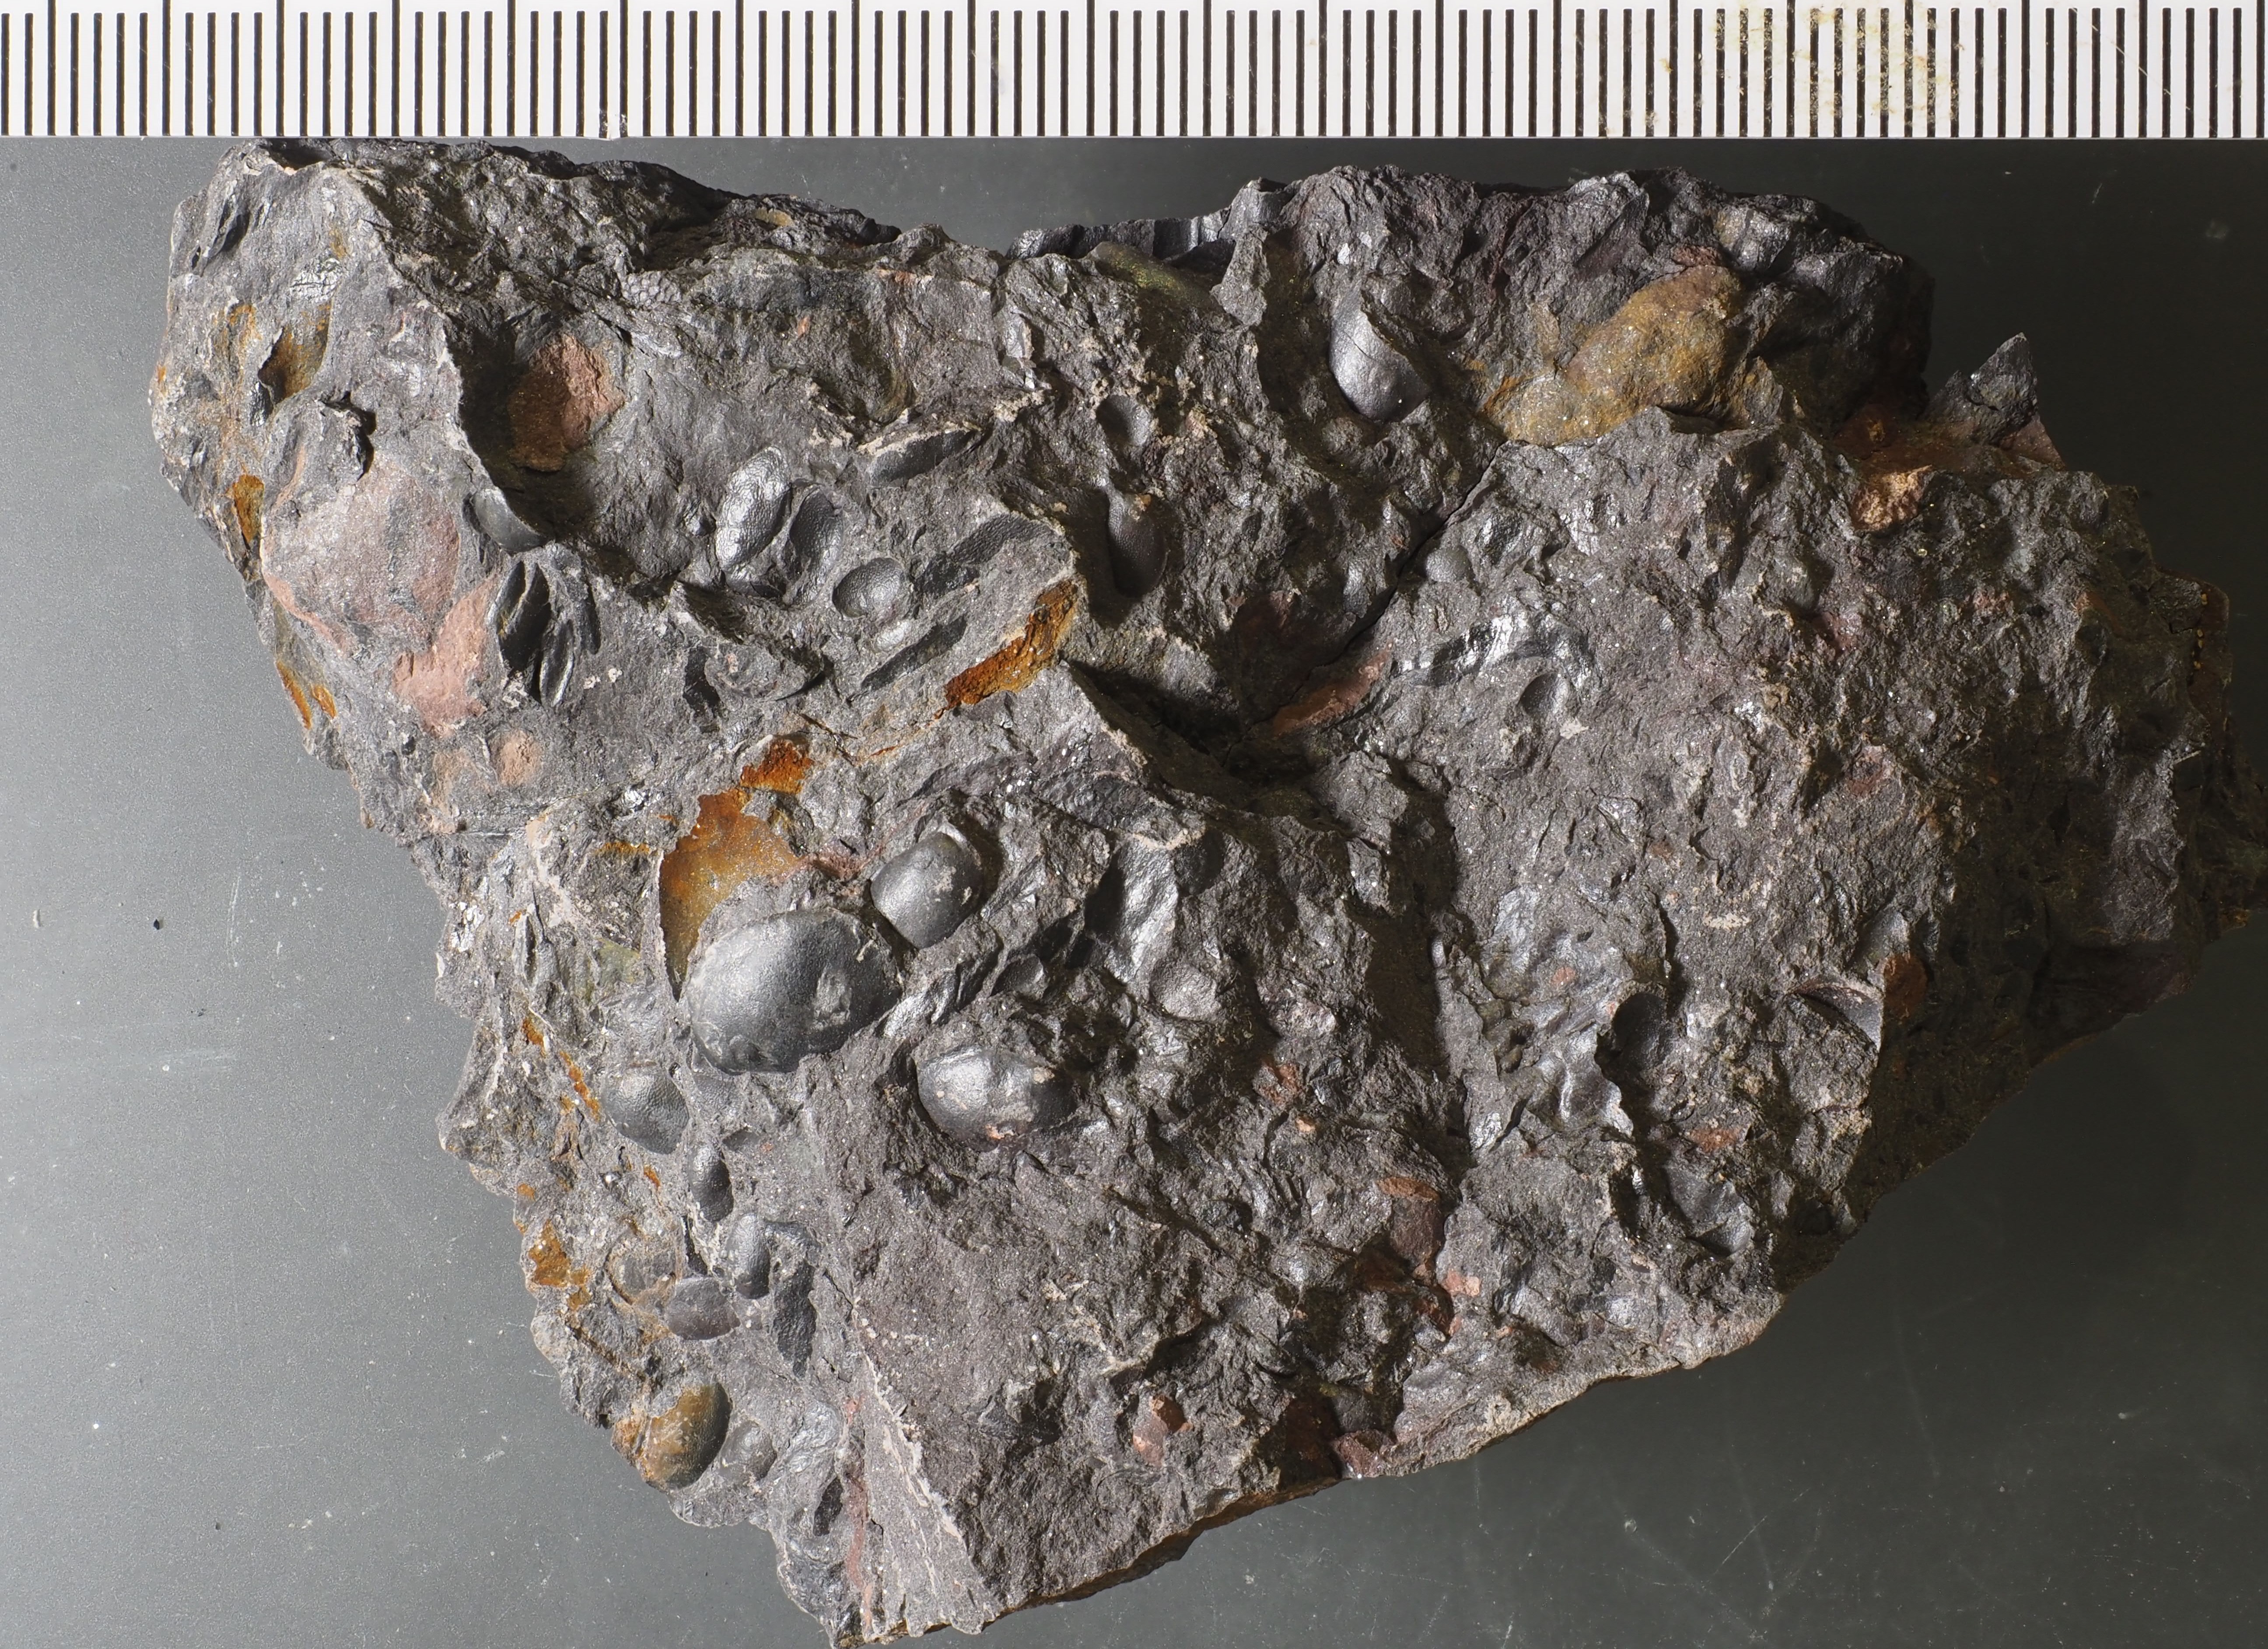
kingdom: Animalia
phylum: Arthropoda
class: Ostracoda
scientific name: Ostracoda
